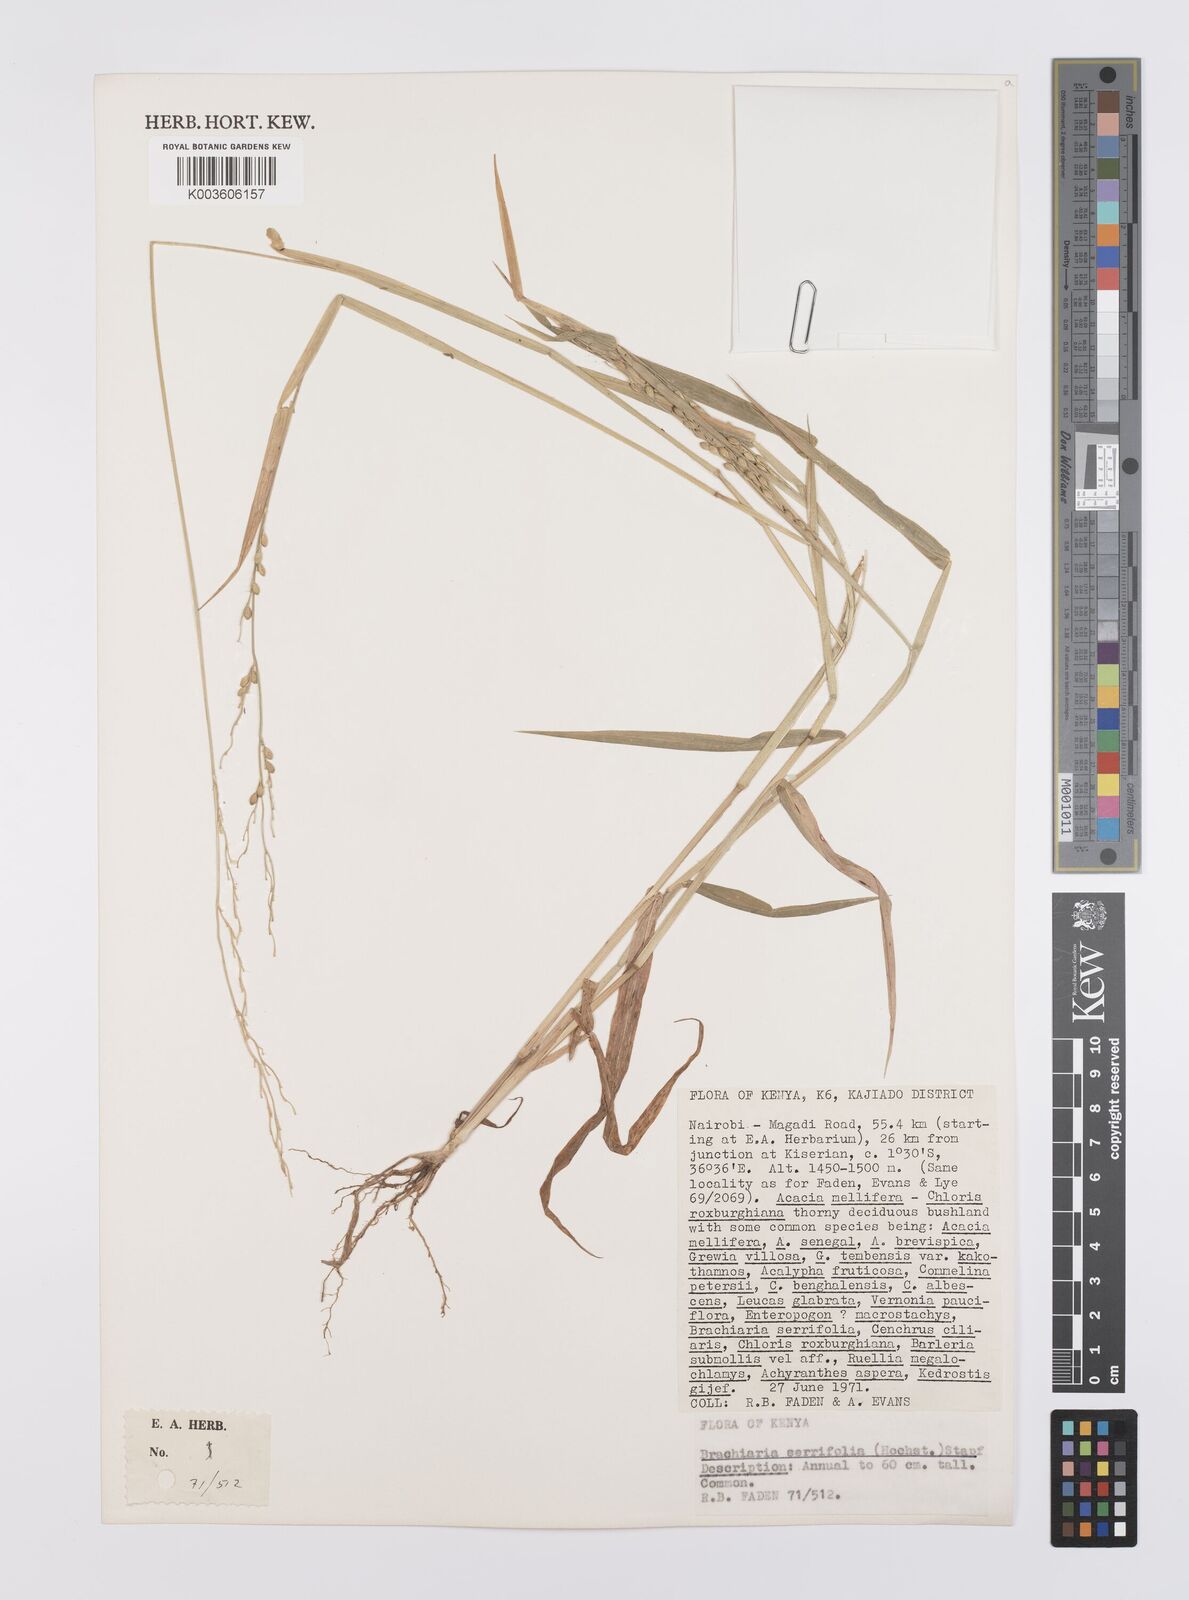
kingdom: Plantae
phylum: Tracheophyta
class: Liliopsida
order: Poales
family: Poaceae
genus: Urochloa
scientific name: Urochloa serrifolia
